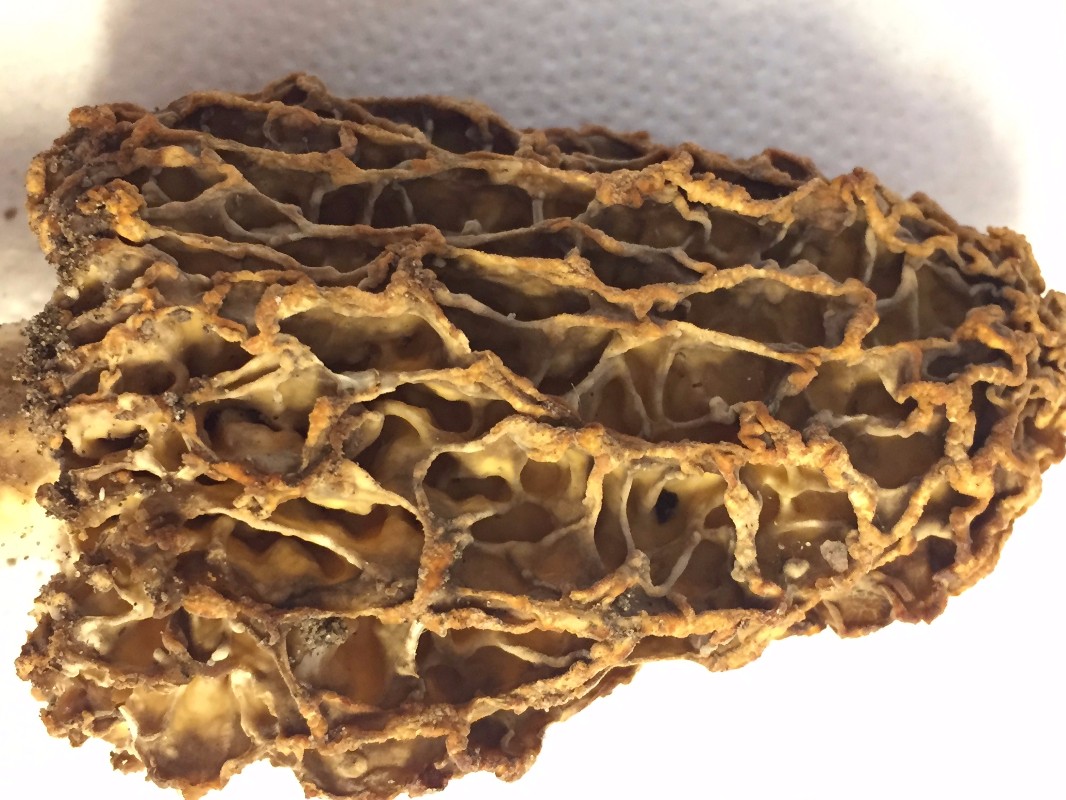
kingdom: Fungi
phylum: Ascomycota
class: Pezizomycetes
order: Pezizales
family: Morchellaceae
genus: Morchella
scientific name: Morchella
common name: morkel
